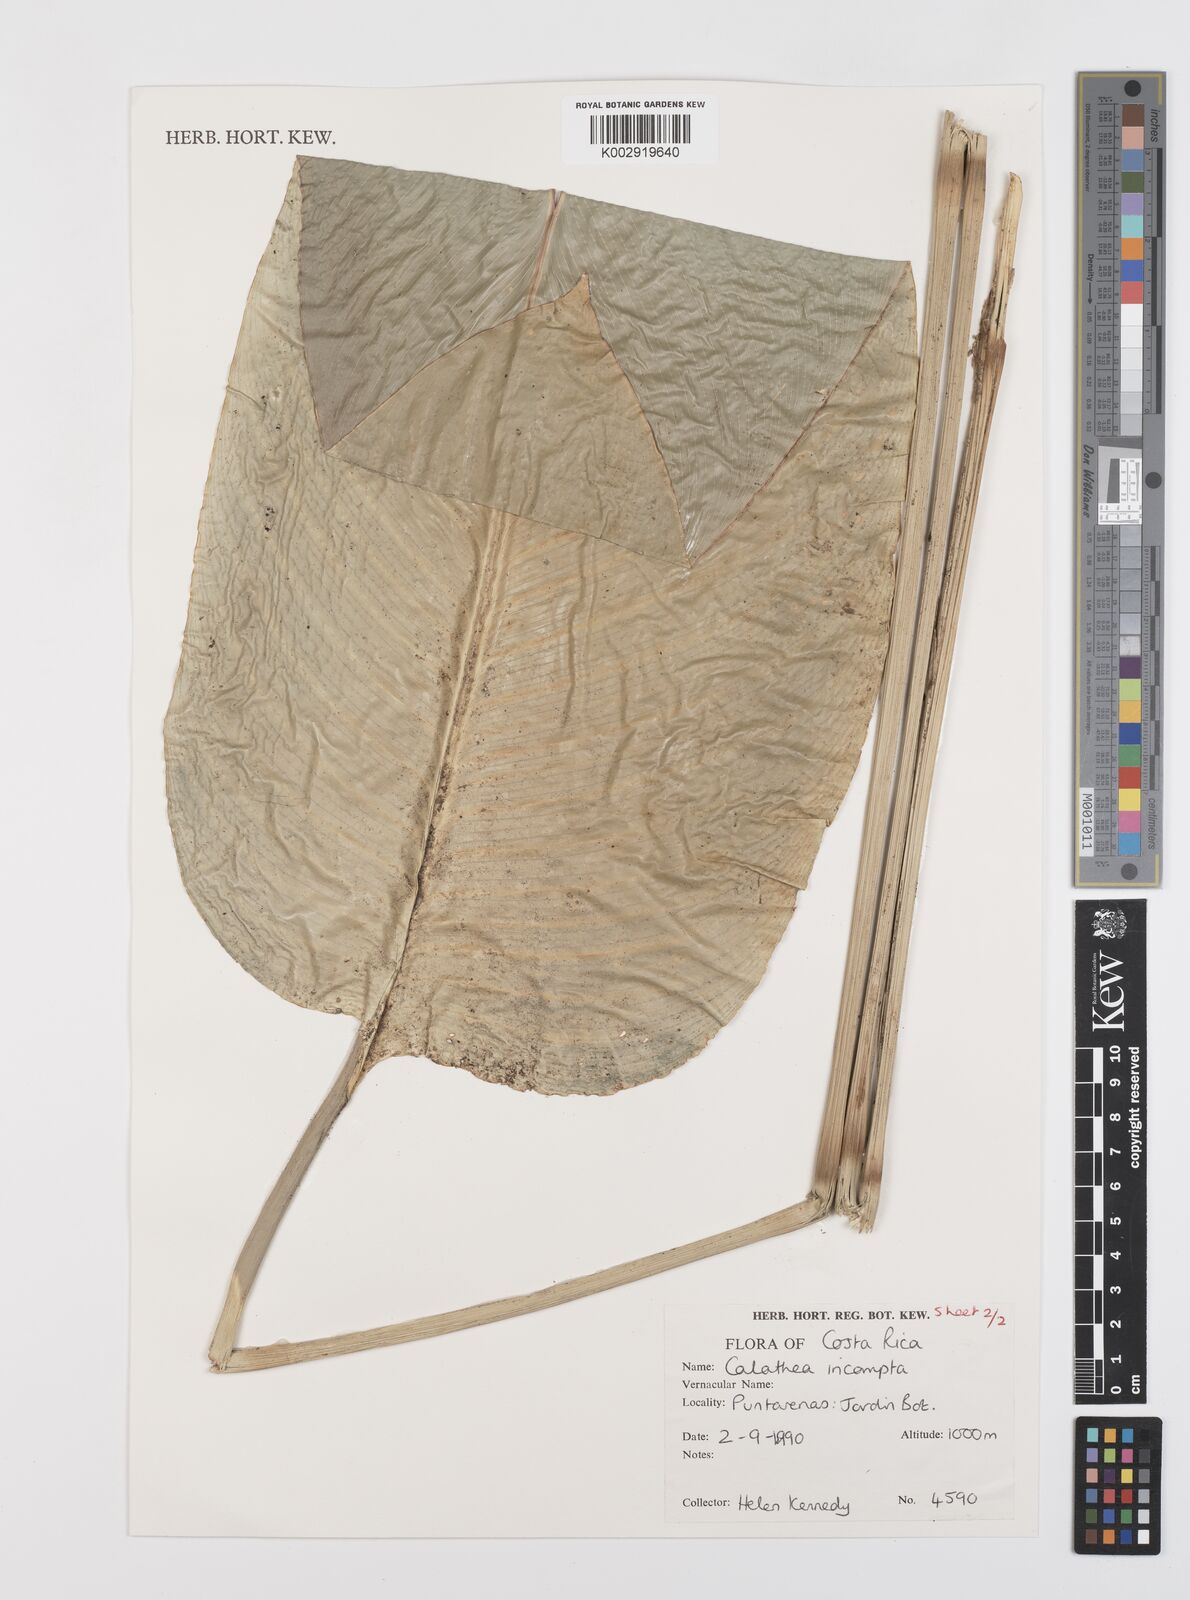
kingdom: Plantae
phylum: Tracheophyta
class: Liliopsida
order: Zingiberales
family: Marantaceae
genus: Goeppertia
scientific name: Goeppertia incompta
